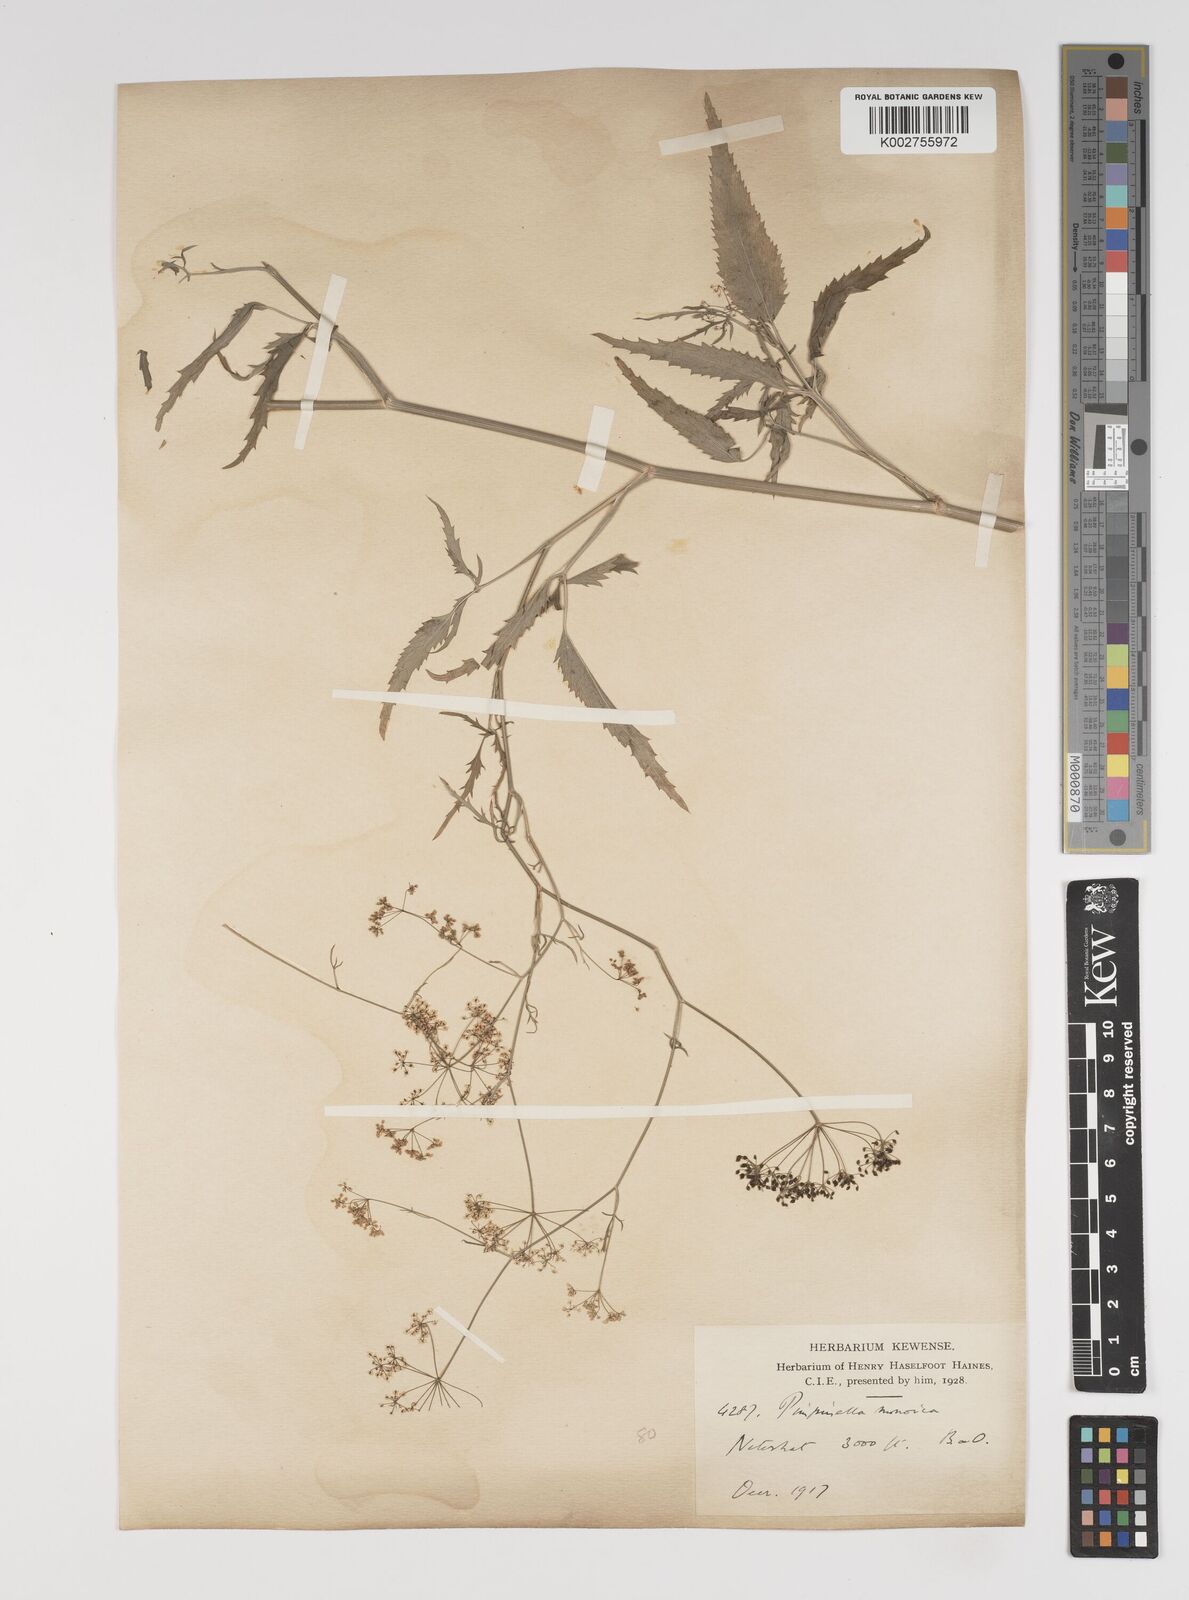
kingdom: Plantae
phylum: Tracheophyta
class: Magnoliopsida
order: Apiales
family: Apiaceae
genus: Pimpinella
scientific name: Pimpinella wallichiana
